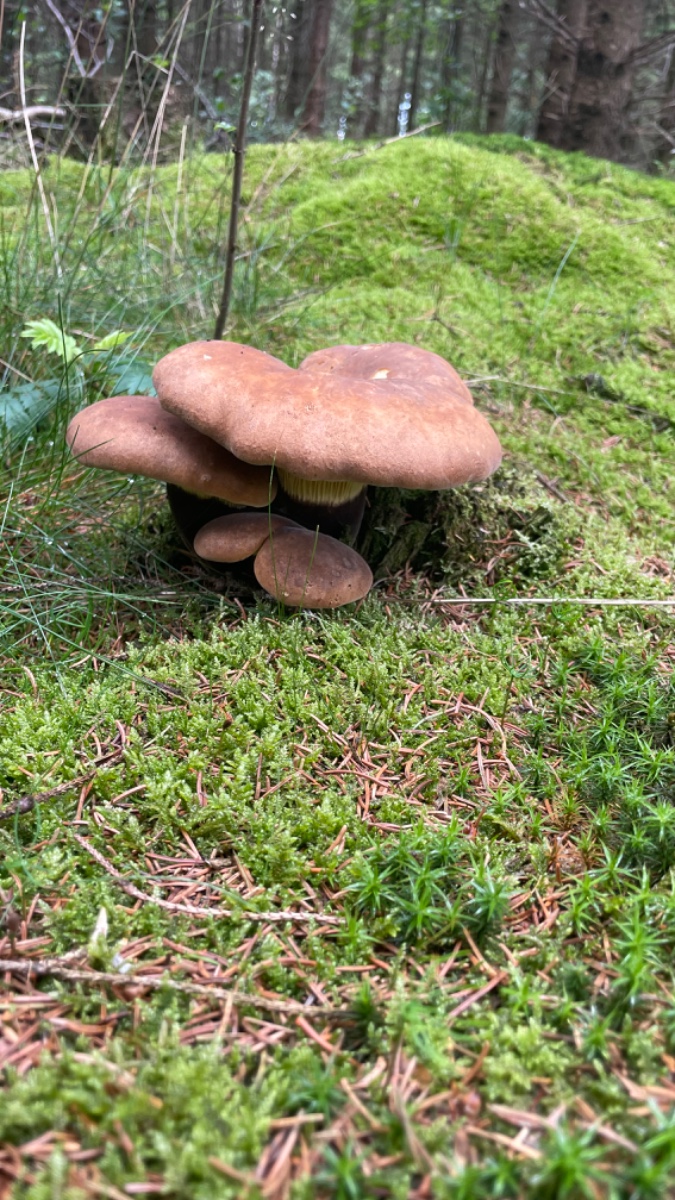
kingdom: Fungi
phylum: Basidiomycota
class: Agaricomycetes
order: Boletales
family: Tapinellaceae
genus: Tapinella
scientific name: Tapinella atrotomentosa
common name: sortfiltet viftesvamp
